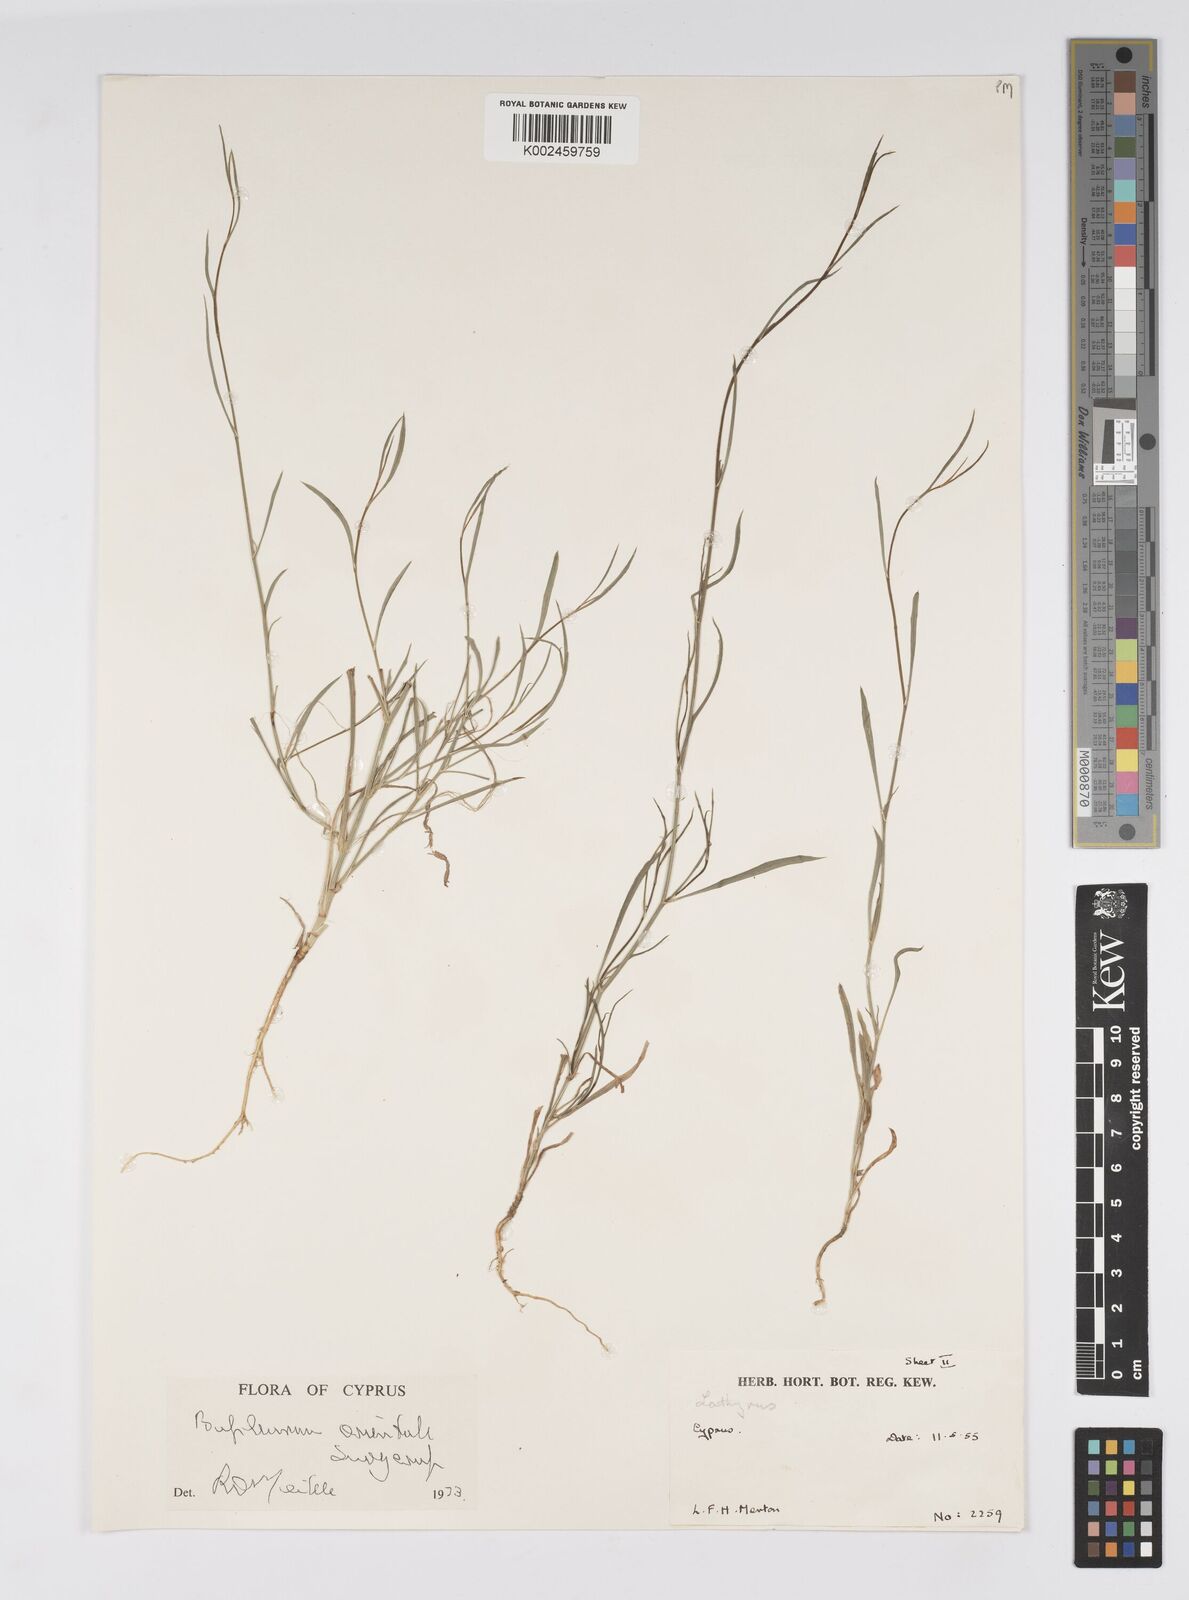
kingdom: Plantae
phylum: Tracheophyta
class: Magnoliopsida
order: Apiales
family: Apiaceae
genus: Bupleurum
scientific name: Bupleurum orientale
